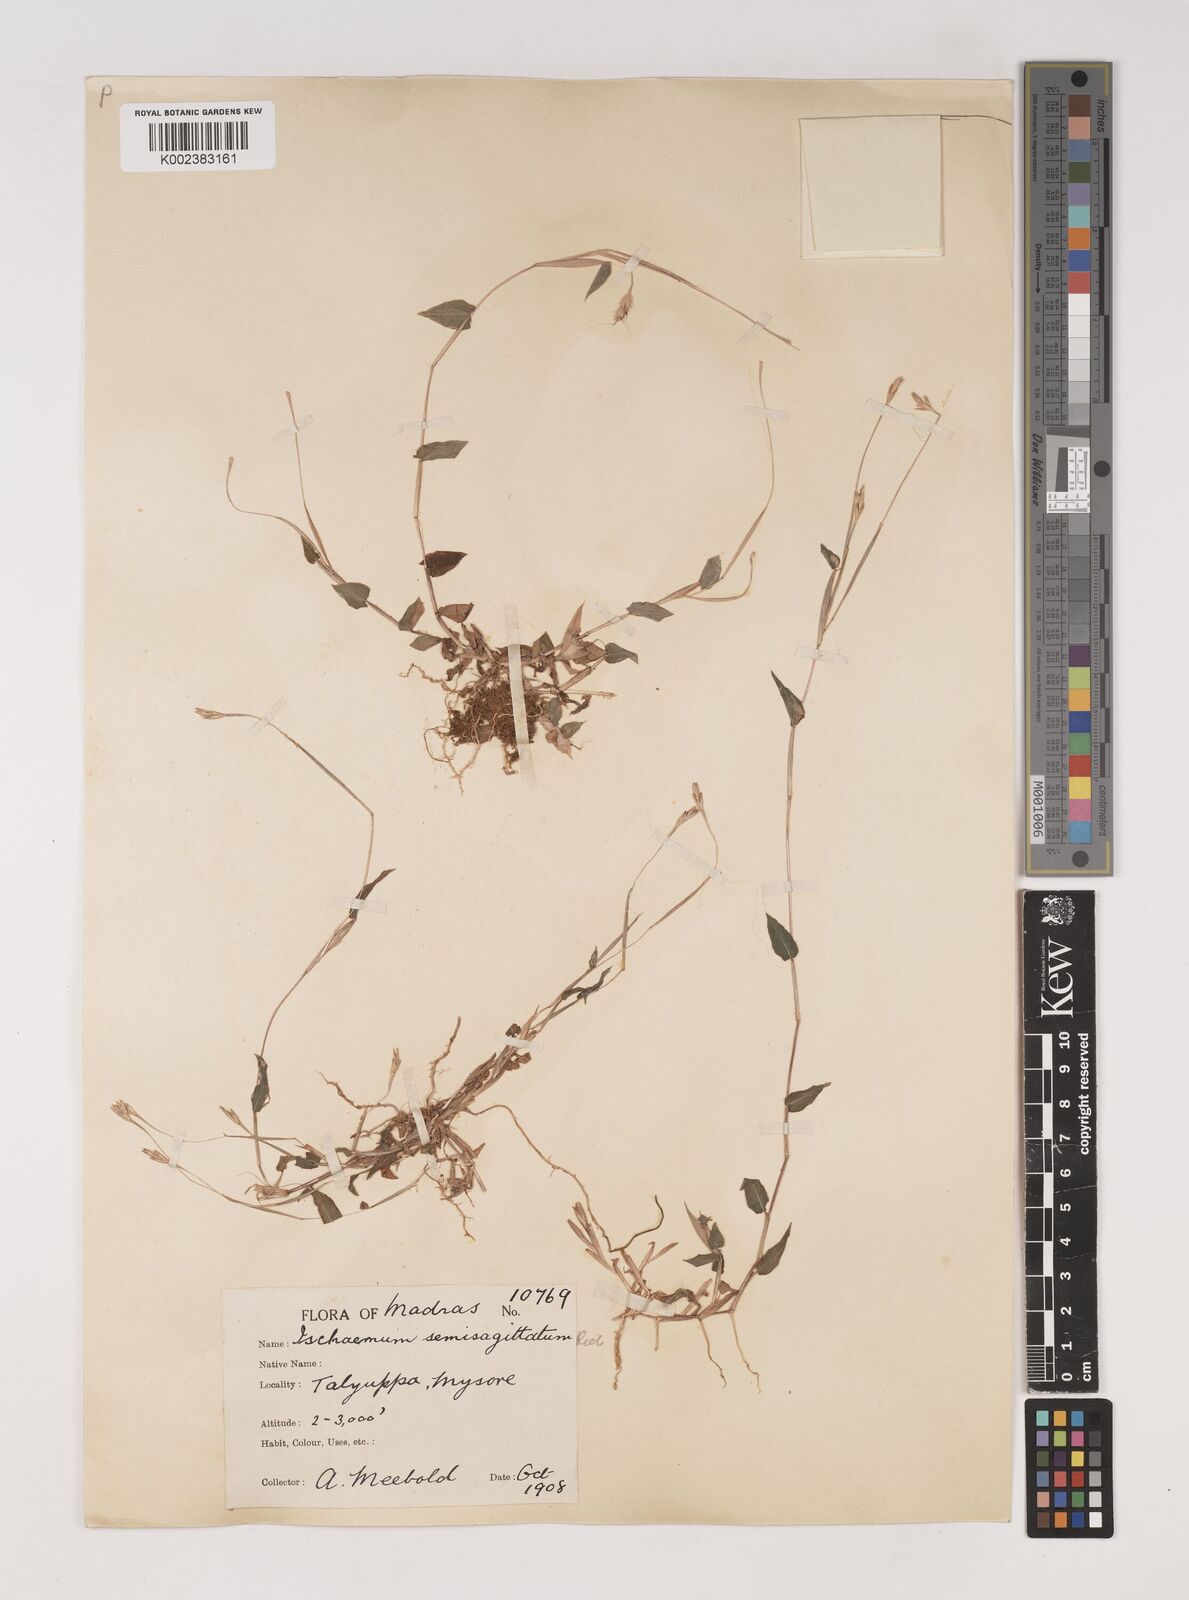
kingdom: Plantae
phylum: Tracheophyta
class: Liliopsida
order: Poales
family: Poaceae
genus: Ischaemum
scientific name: Ischaemum semisagittatum
